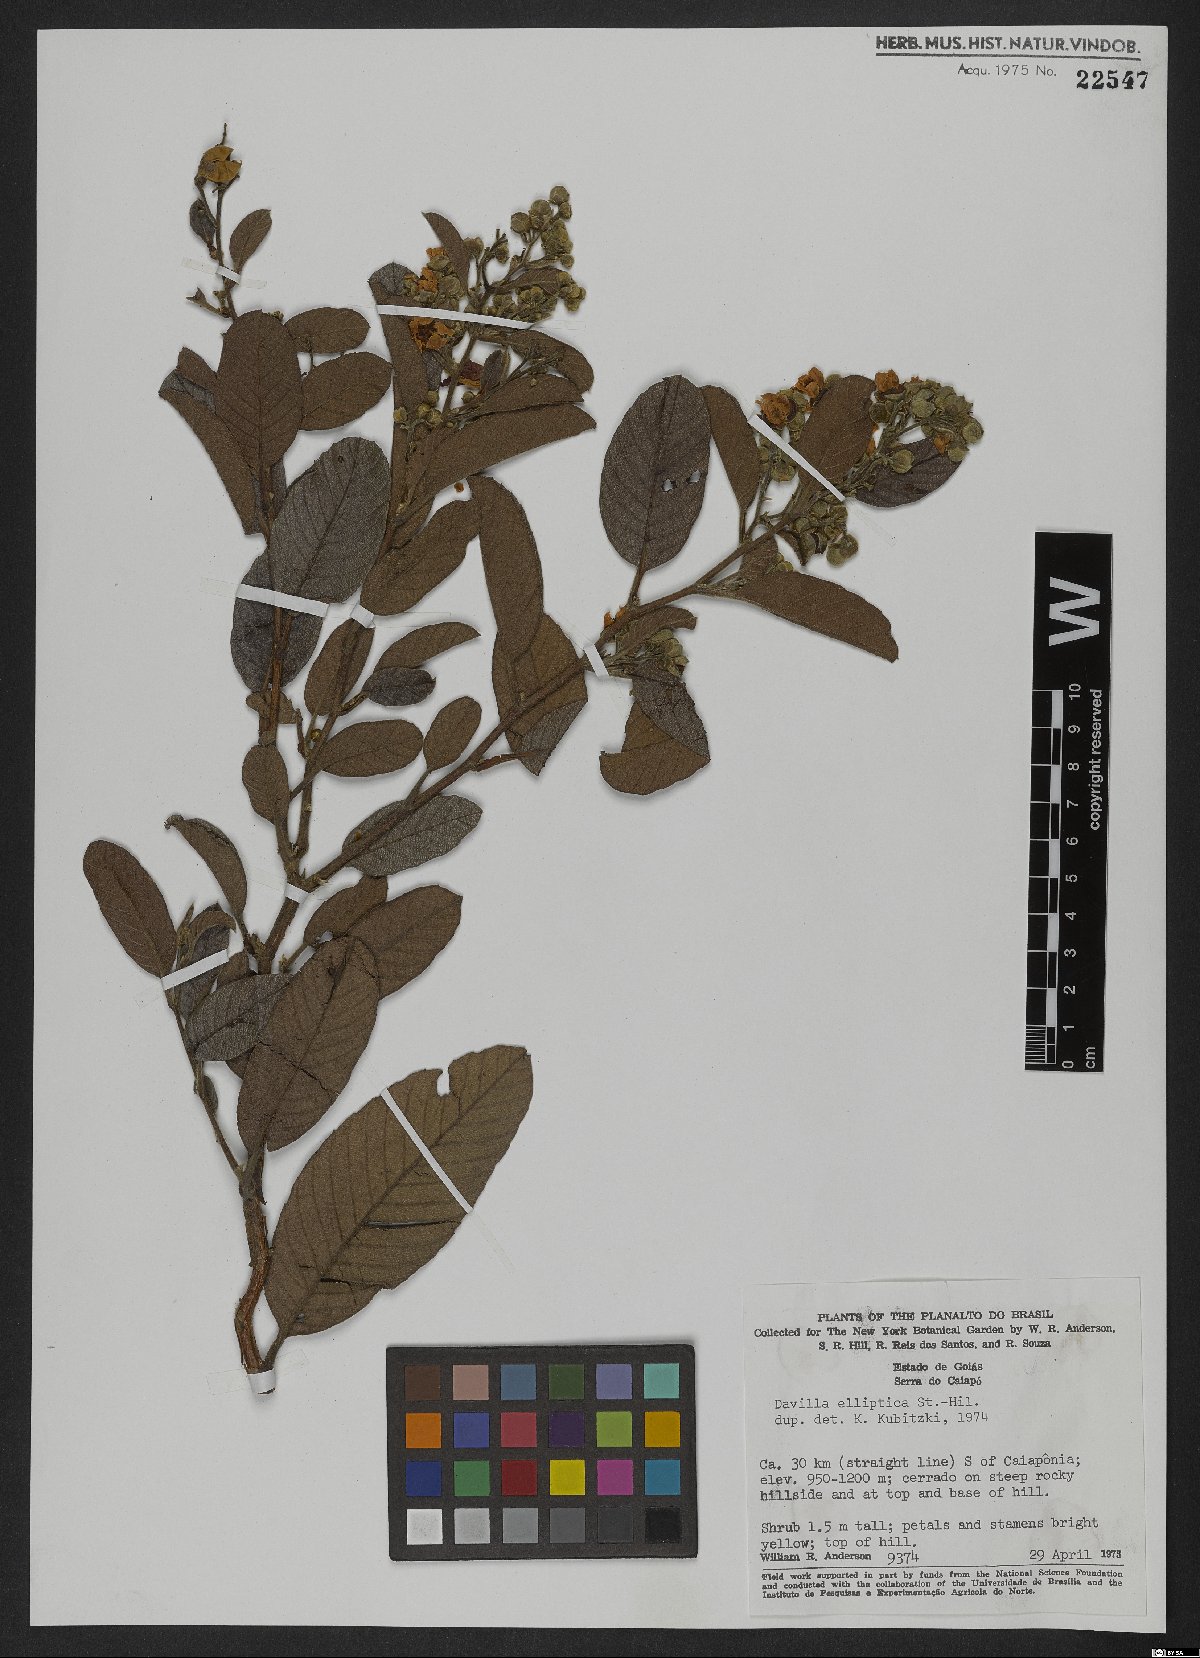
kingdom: Plantae
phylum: Tracheophyta
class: Magnoliopsida
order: Dilleniales
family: Dilleniaceae
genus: Davilla
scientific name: Davilla elliptica
